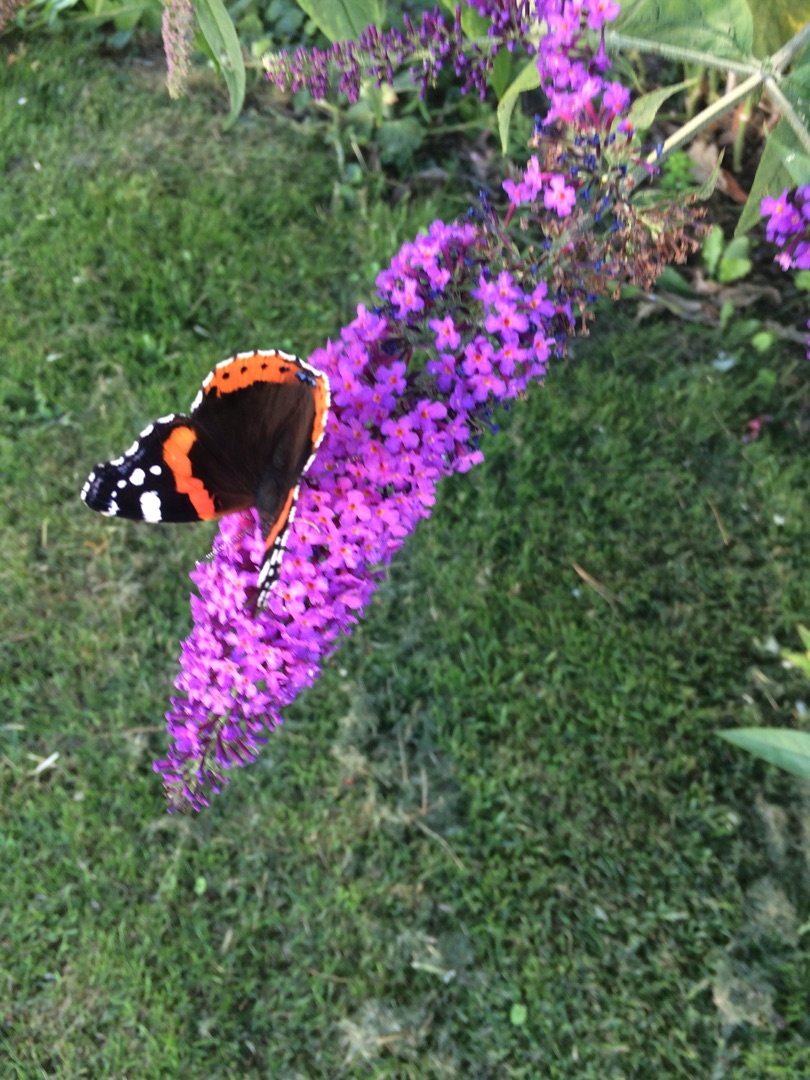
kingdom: Animalia
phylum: Arthropoda
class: Insecta
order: Lepidoptera
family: Nymphalidae
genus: Vanessa
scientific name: Vanessa atalanta
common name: Admiral
